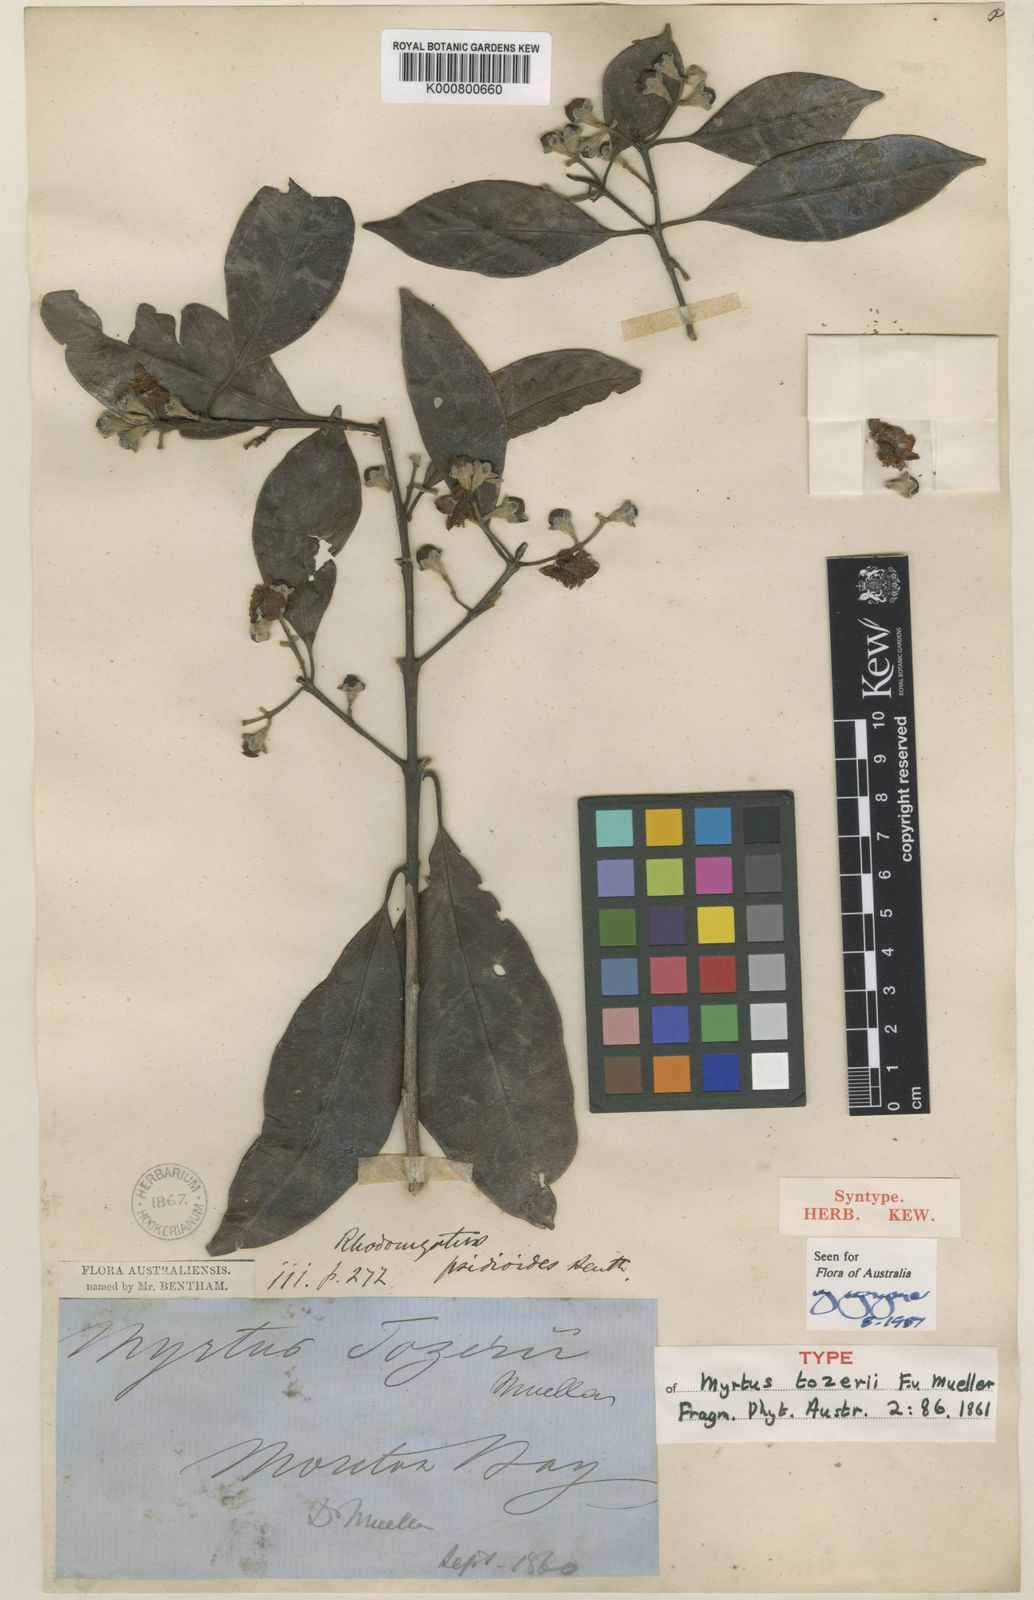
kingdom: Plantae
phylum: Tracheophyta
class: Magnoliopsida
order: Myrtales
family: Myrtaceae
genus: Rhodomyrtus
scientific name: Rhodomyrtus psidioides
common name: Native-guava
